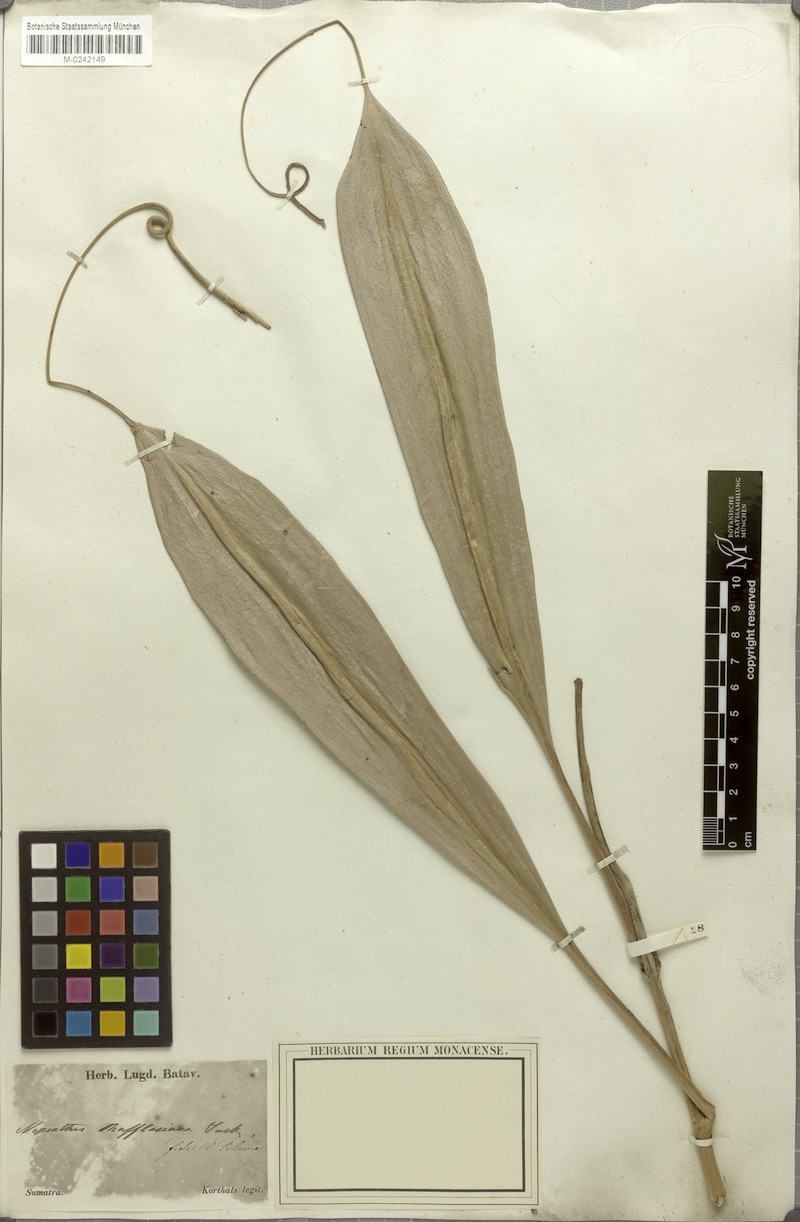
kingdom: Plantae
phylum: Tracheophyta
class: Magnoliopsida
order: Caryophyllales
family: Nepenthaceae
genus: Nepenthes
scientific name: Nepenthes rafflesiana
